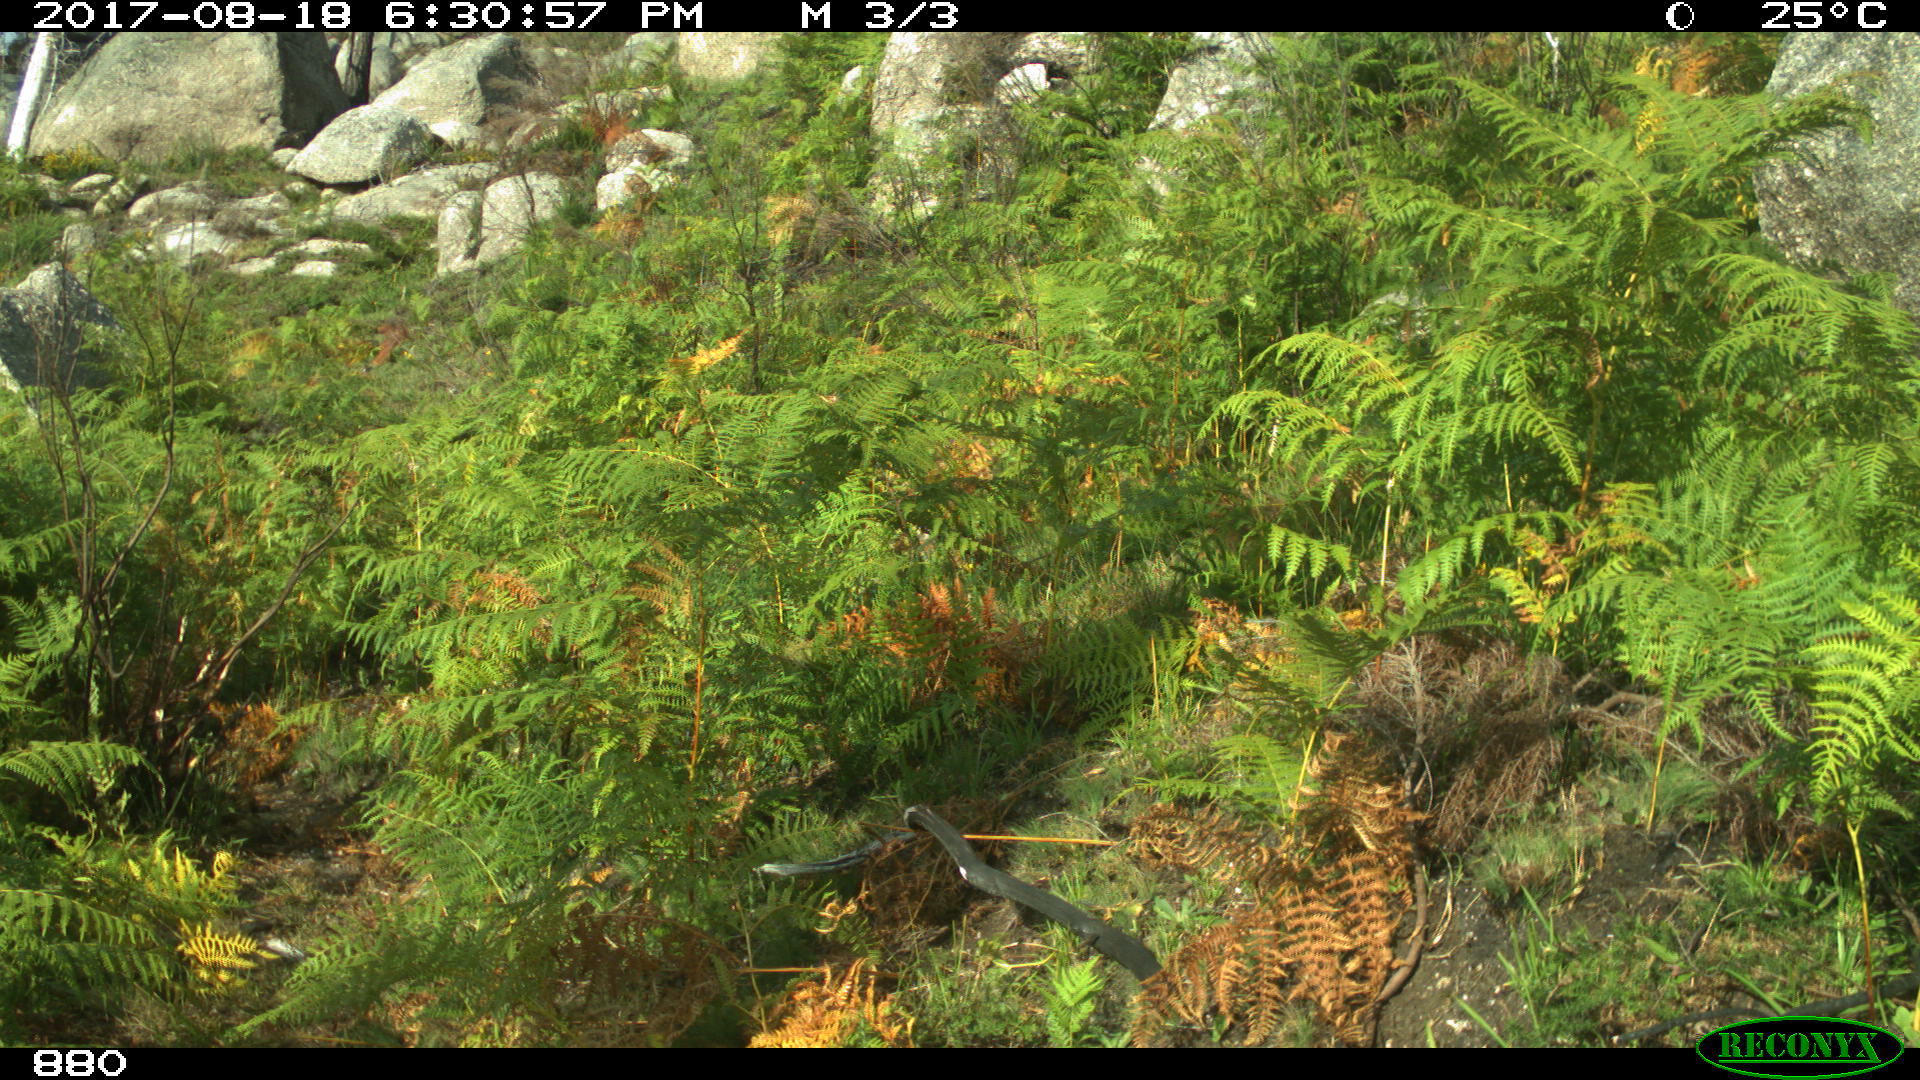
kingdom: Animalia
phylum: Chordata
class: Mammalia
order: Perissodactyla
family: Equidae
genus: Equus
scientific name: Equus caballus
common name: Horse
